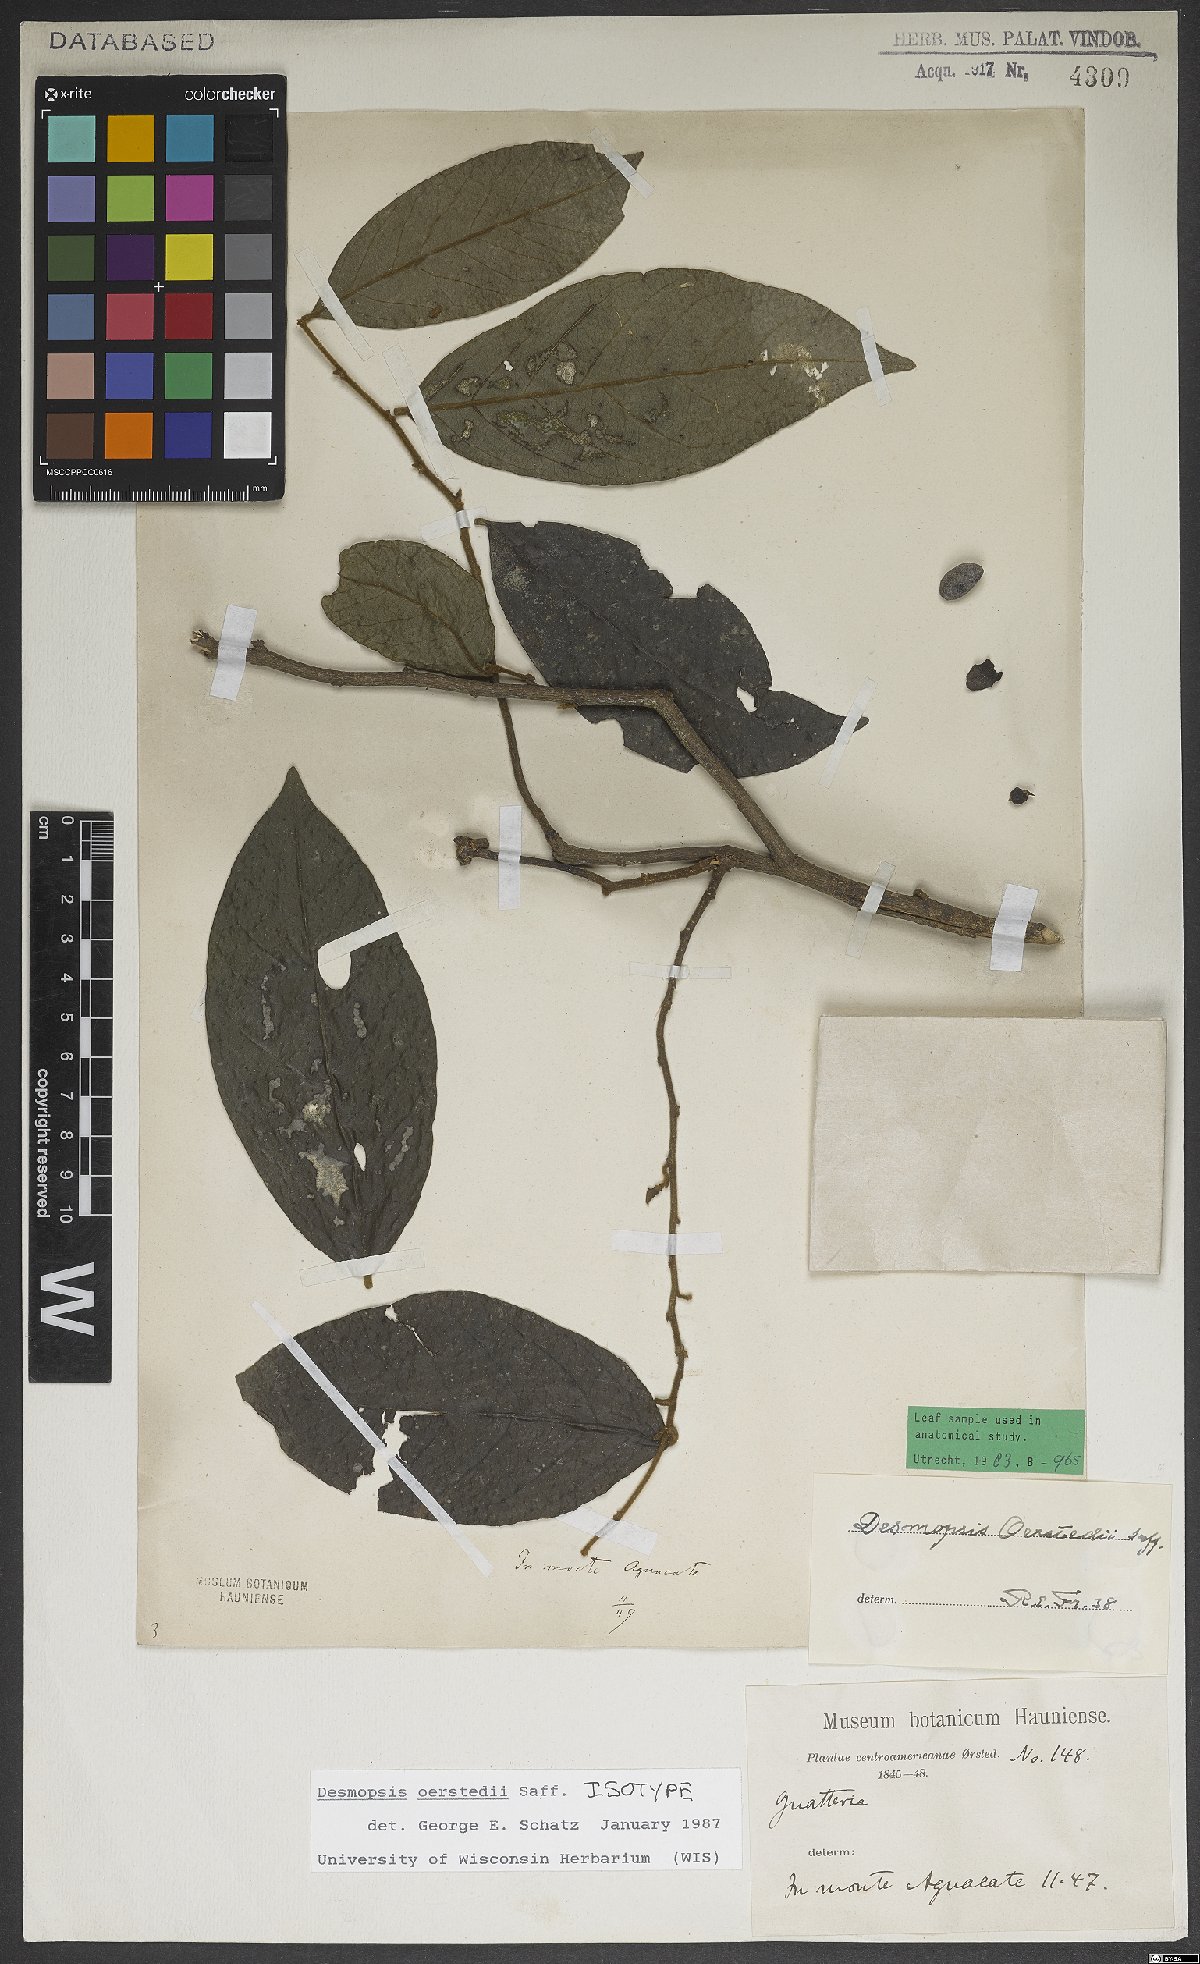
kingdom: Plantae
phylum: Tracheophyta
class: Magnoliopsida
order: Magnoliales
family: Annonaceae
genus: Desmopsis
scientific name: Desmopsis oerstedii
